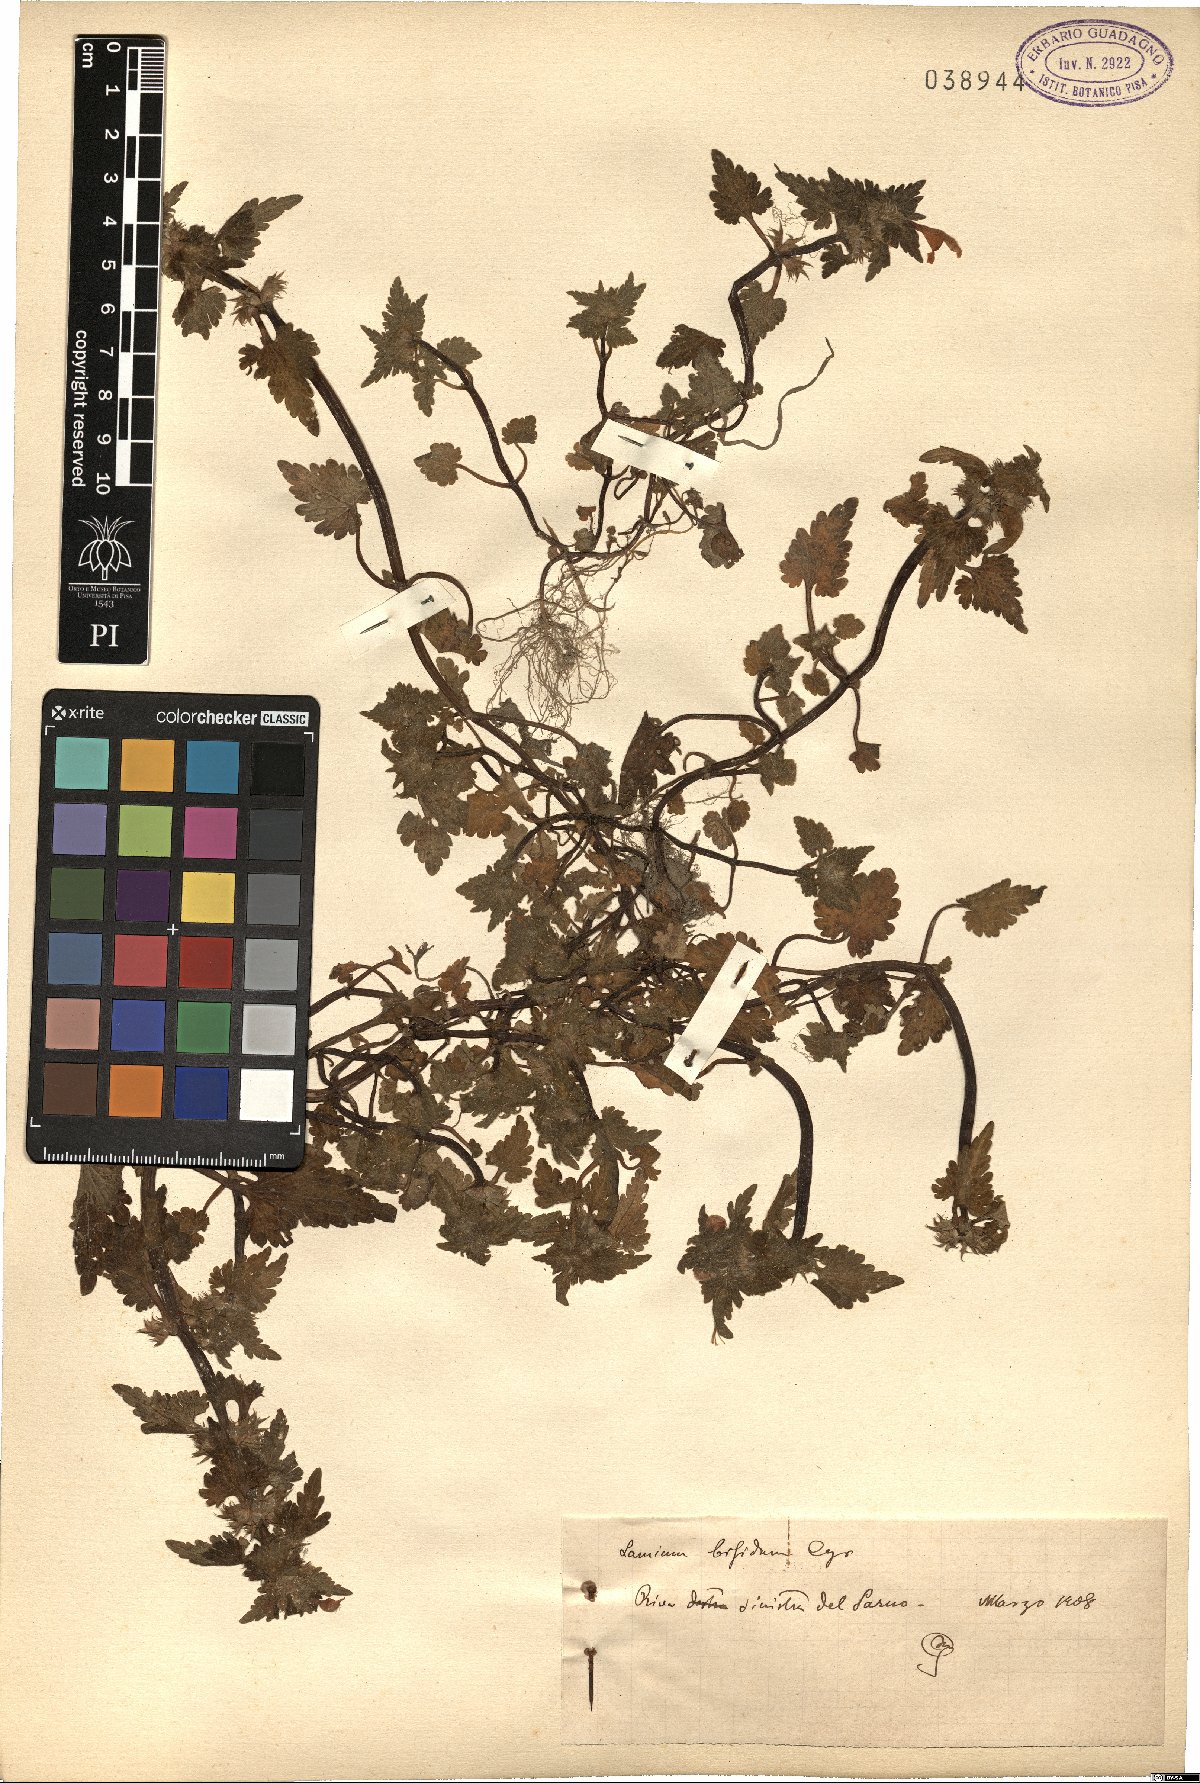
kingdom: Plantae
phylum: Tracheophyta
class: Magnoliopsida
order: Lamiales
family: Lamiaceae
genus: Lamium
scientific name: Lamium bifidum
